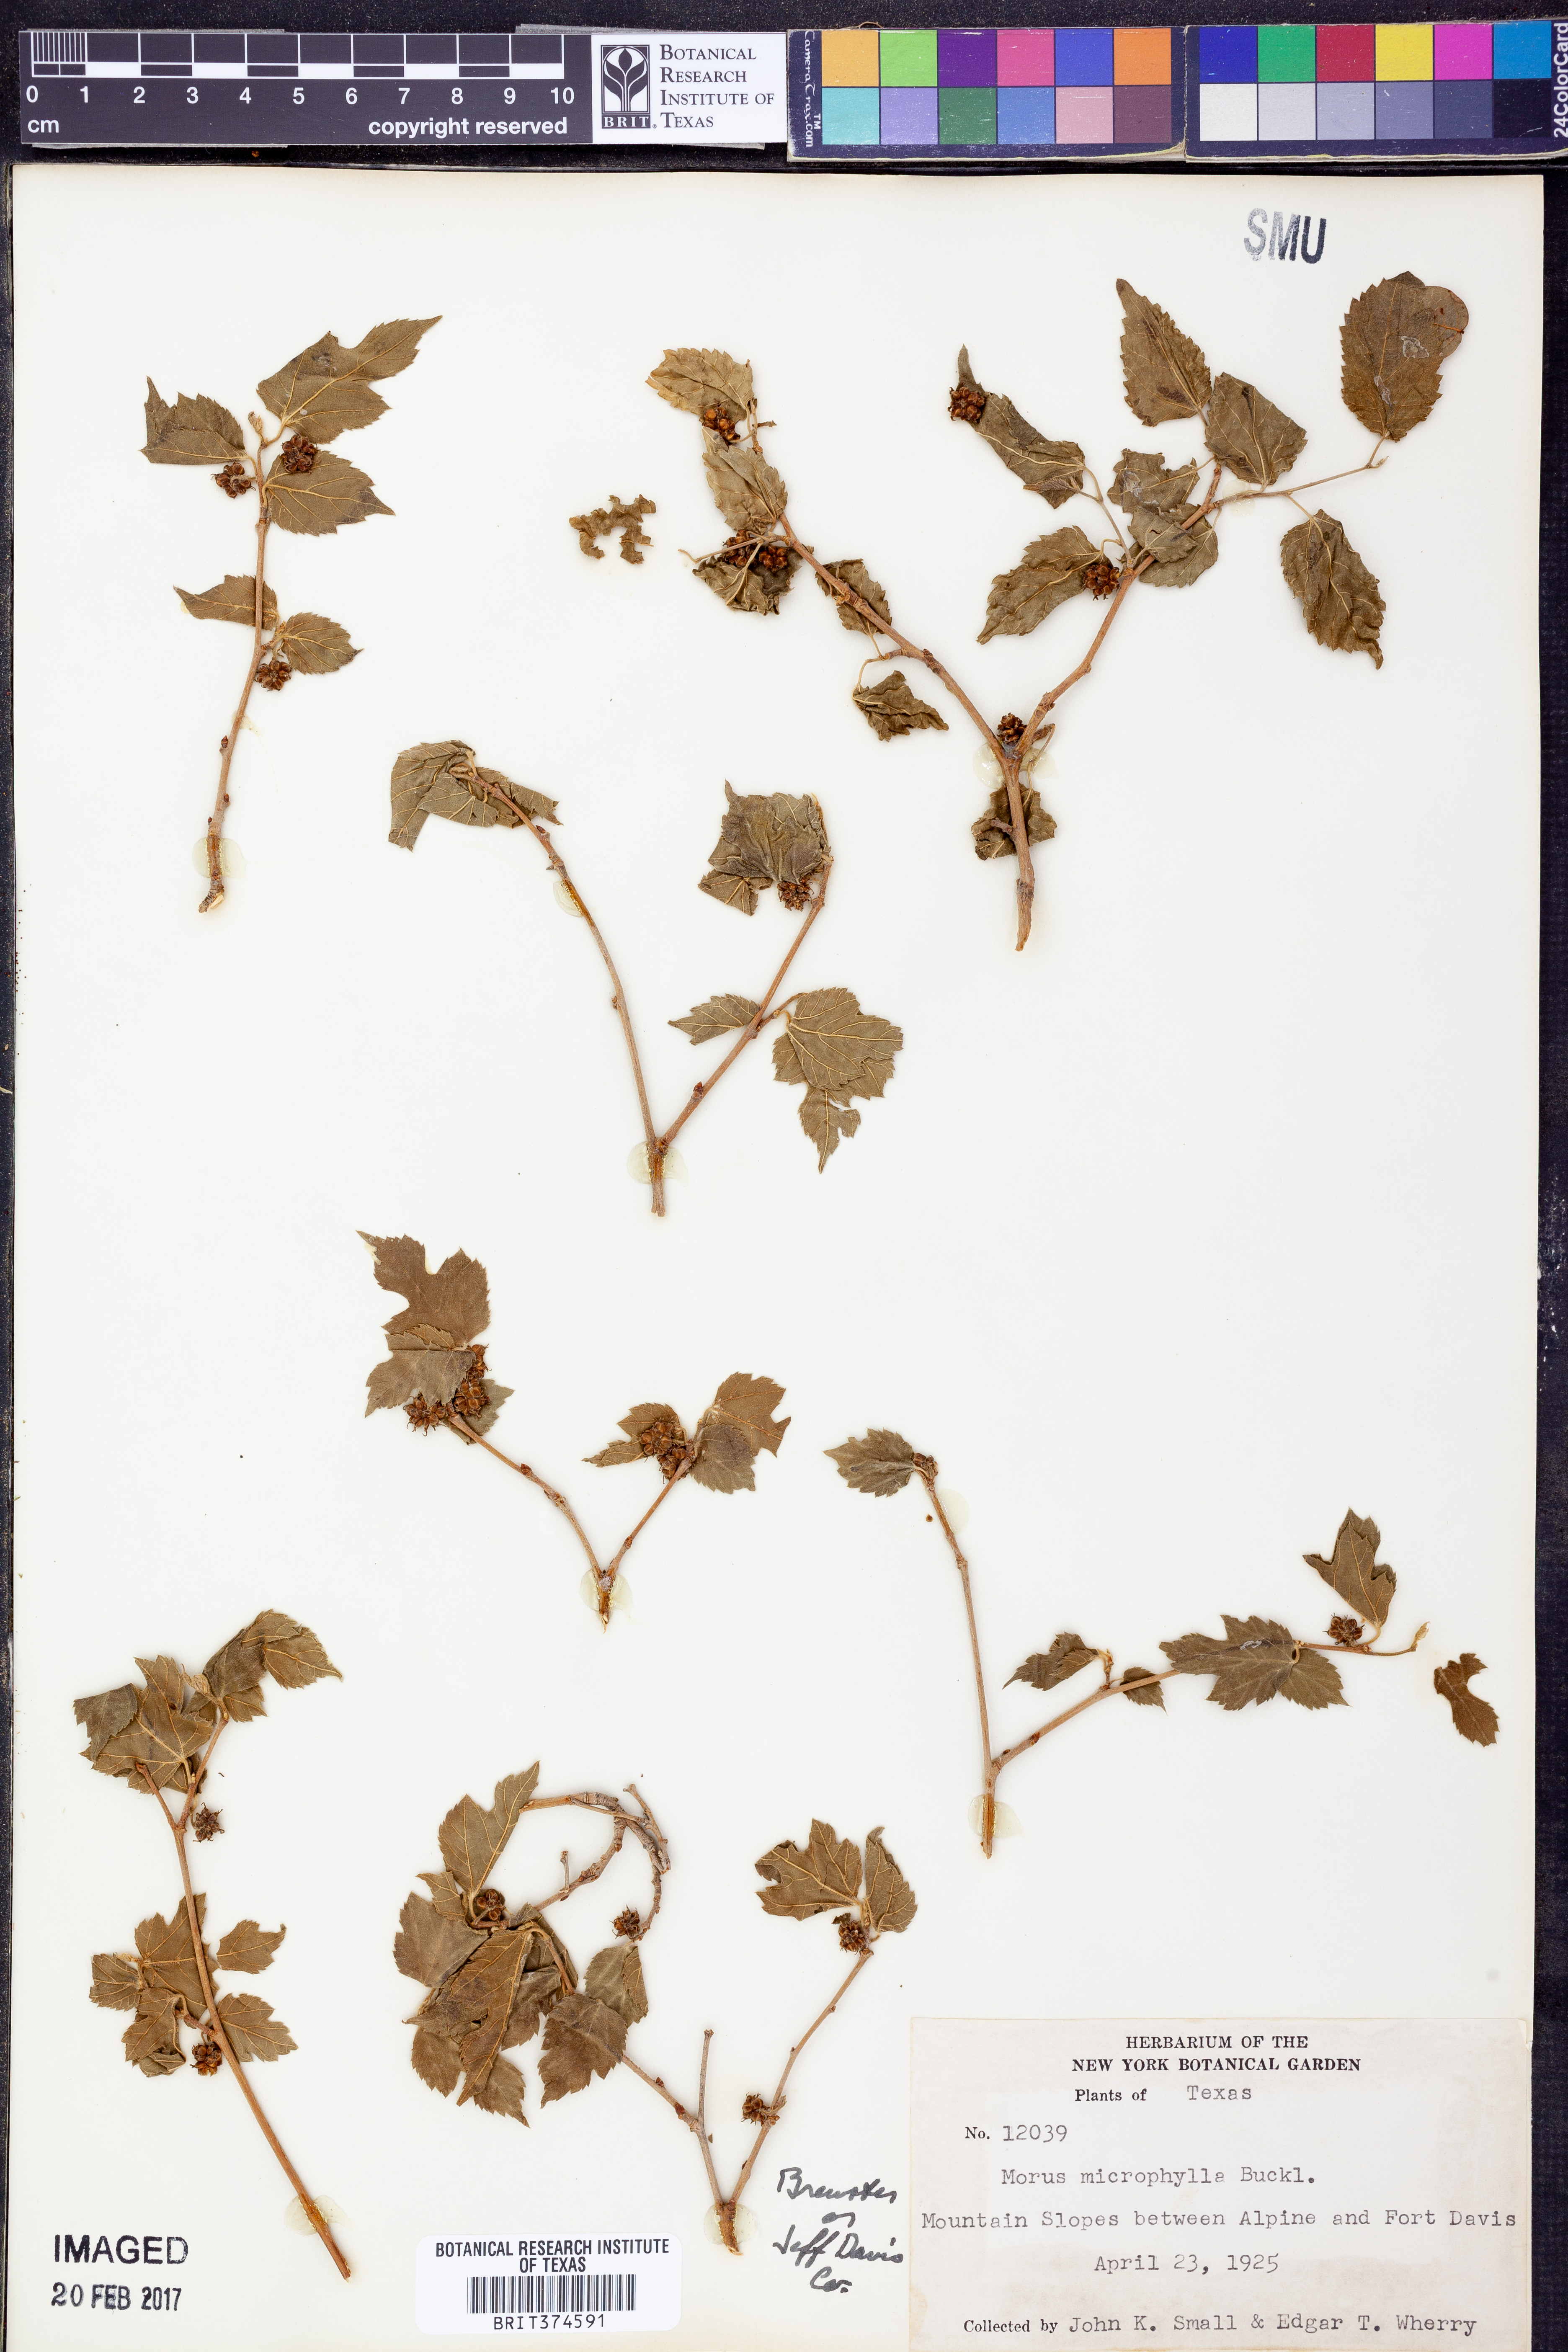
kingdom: Plantae
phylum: Tracheophyta
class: Magnoliopsida
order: Rosales
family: Moraceae
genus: Morus
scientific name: Morus microphylla
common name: Mexican mulberry
